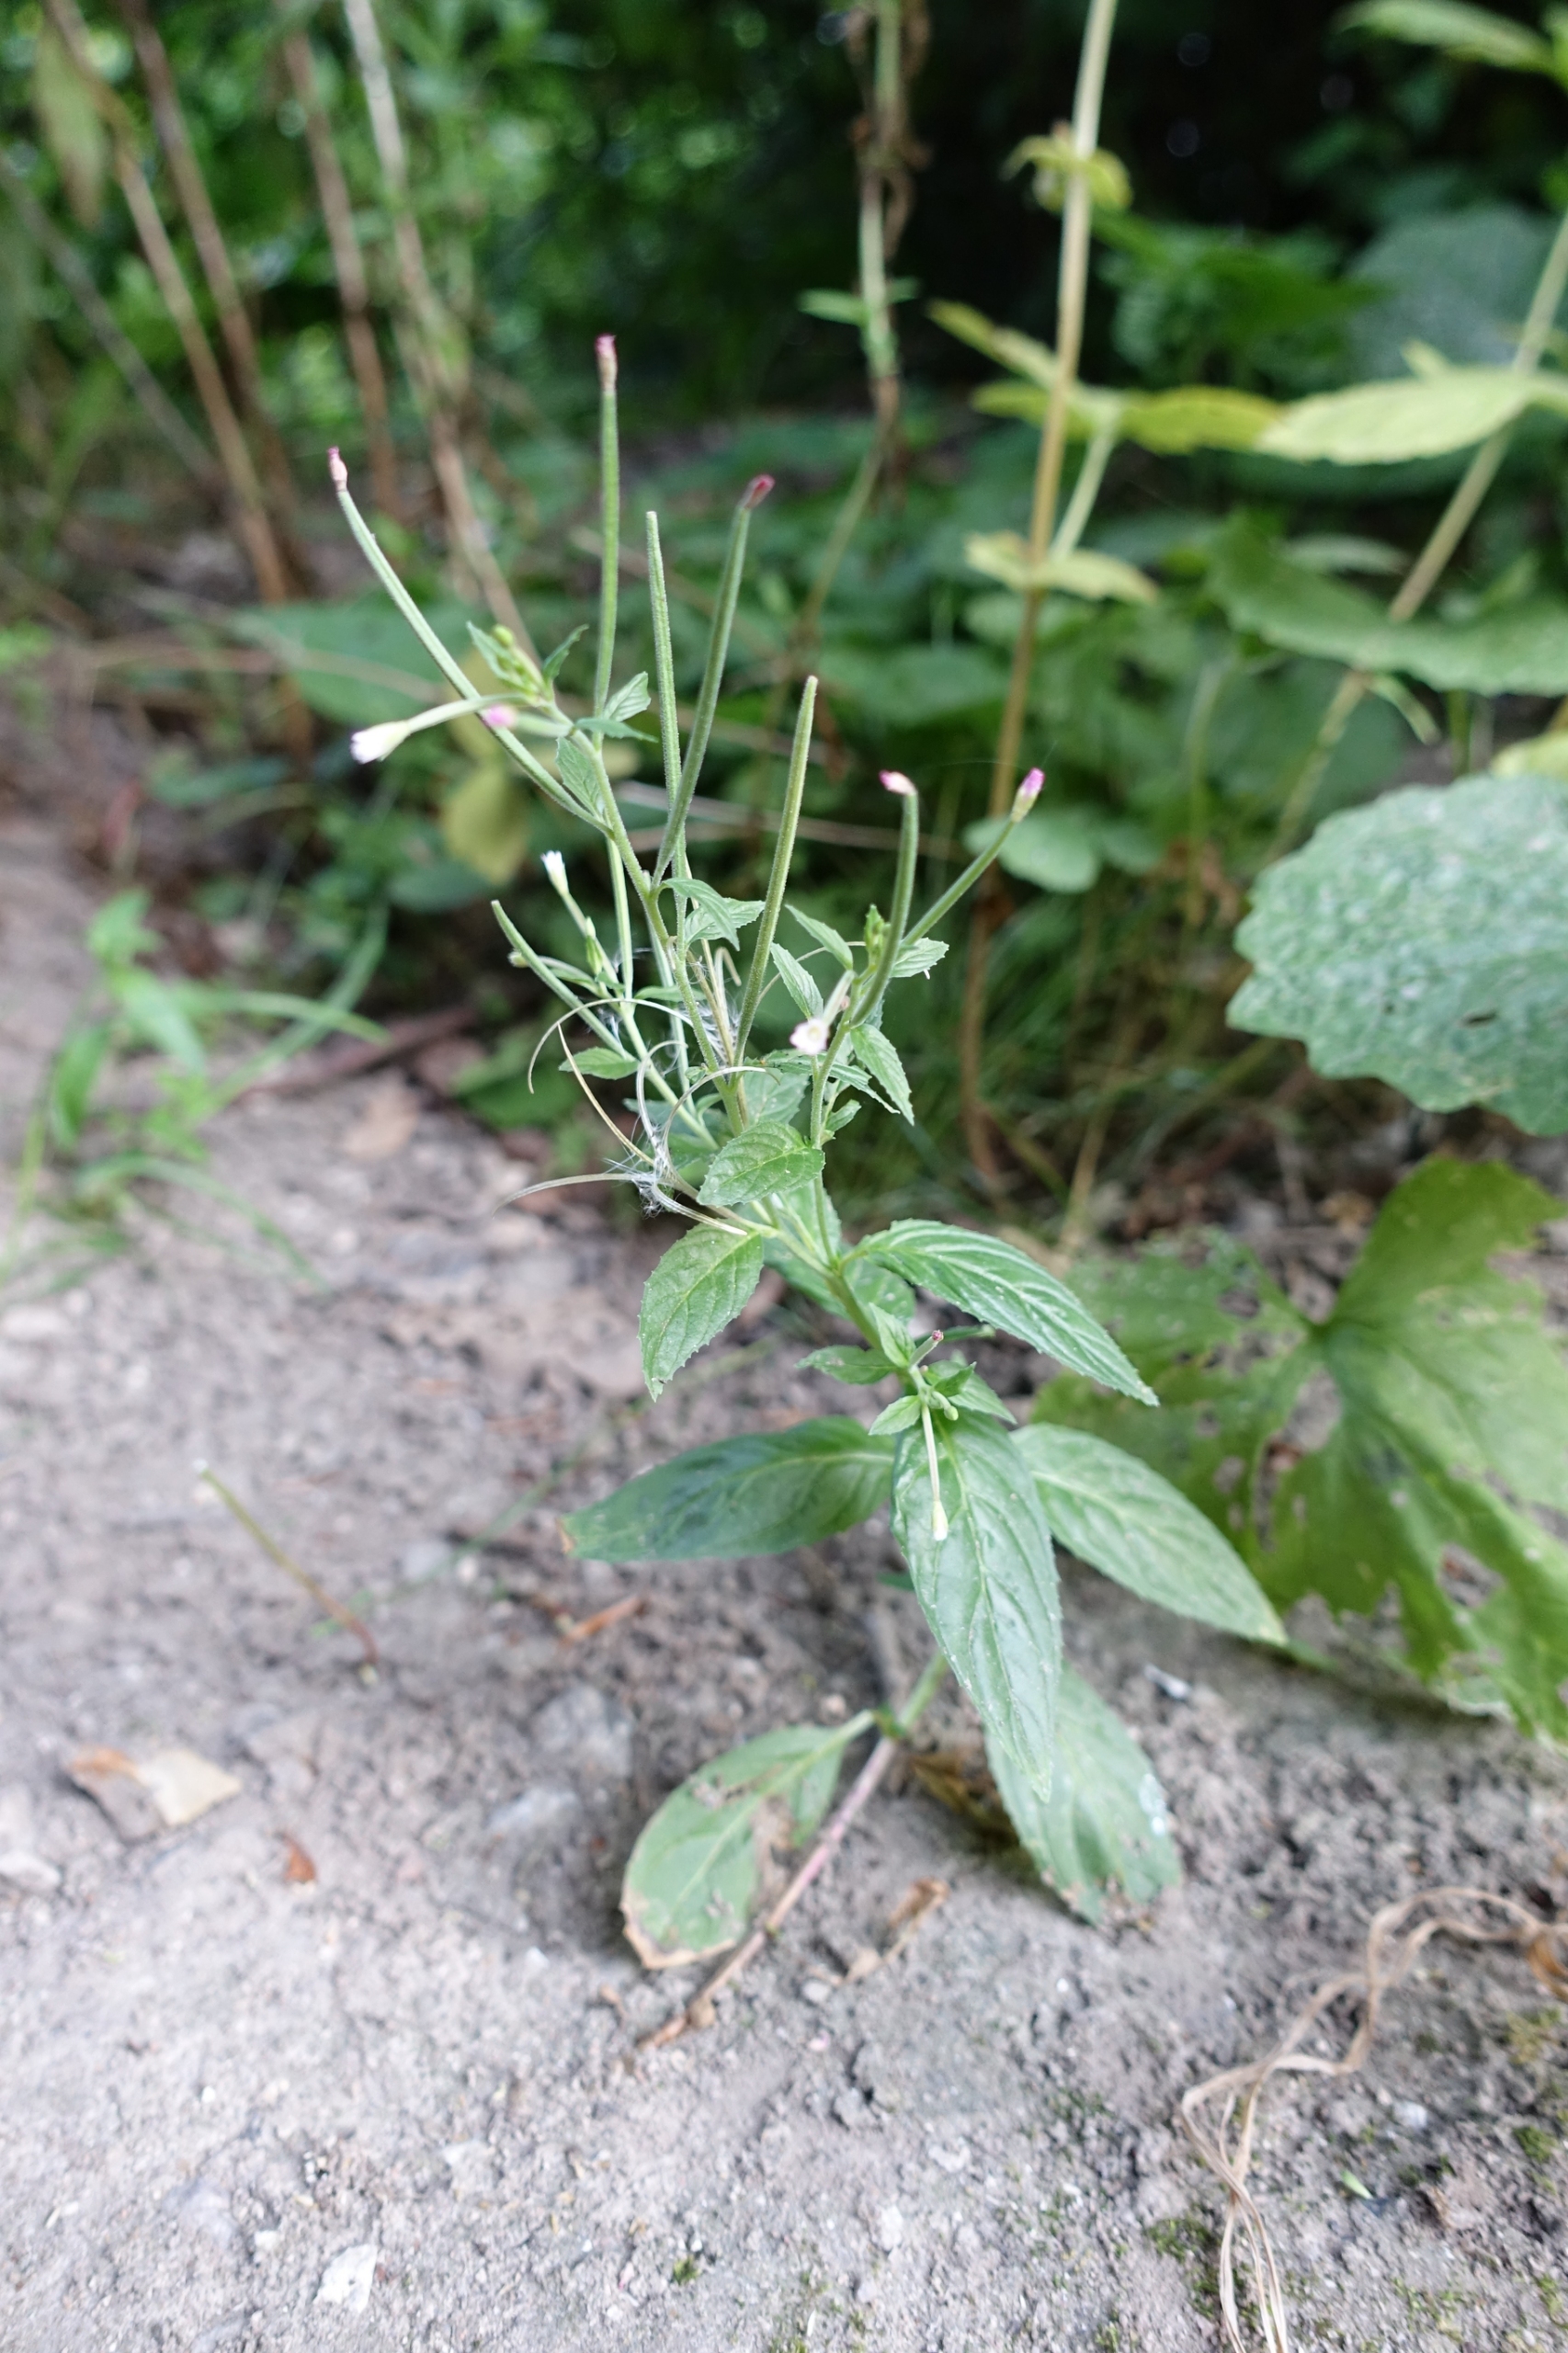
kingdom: Plantae
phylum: Tracheophyta
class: Magnoliopsida
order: Myrtales
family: Onagraceae
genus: Epilobium
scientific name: Epilobium roseum
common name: Rosen-dueurt
